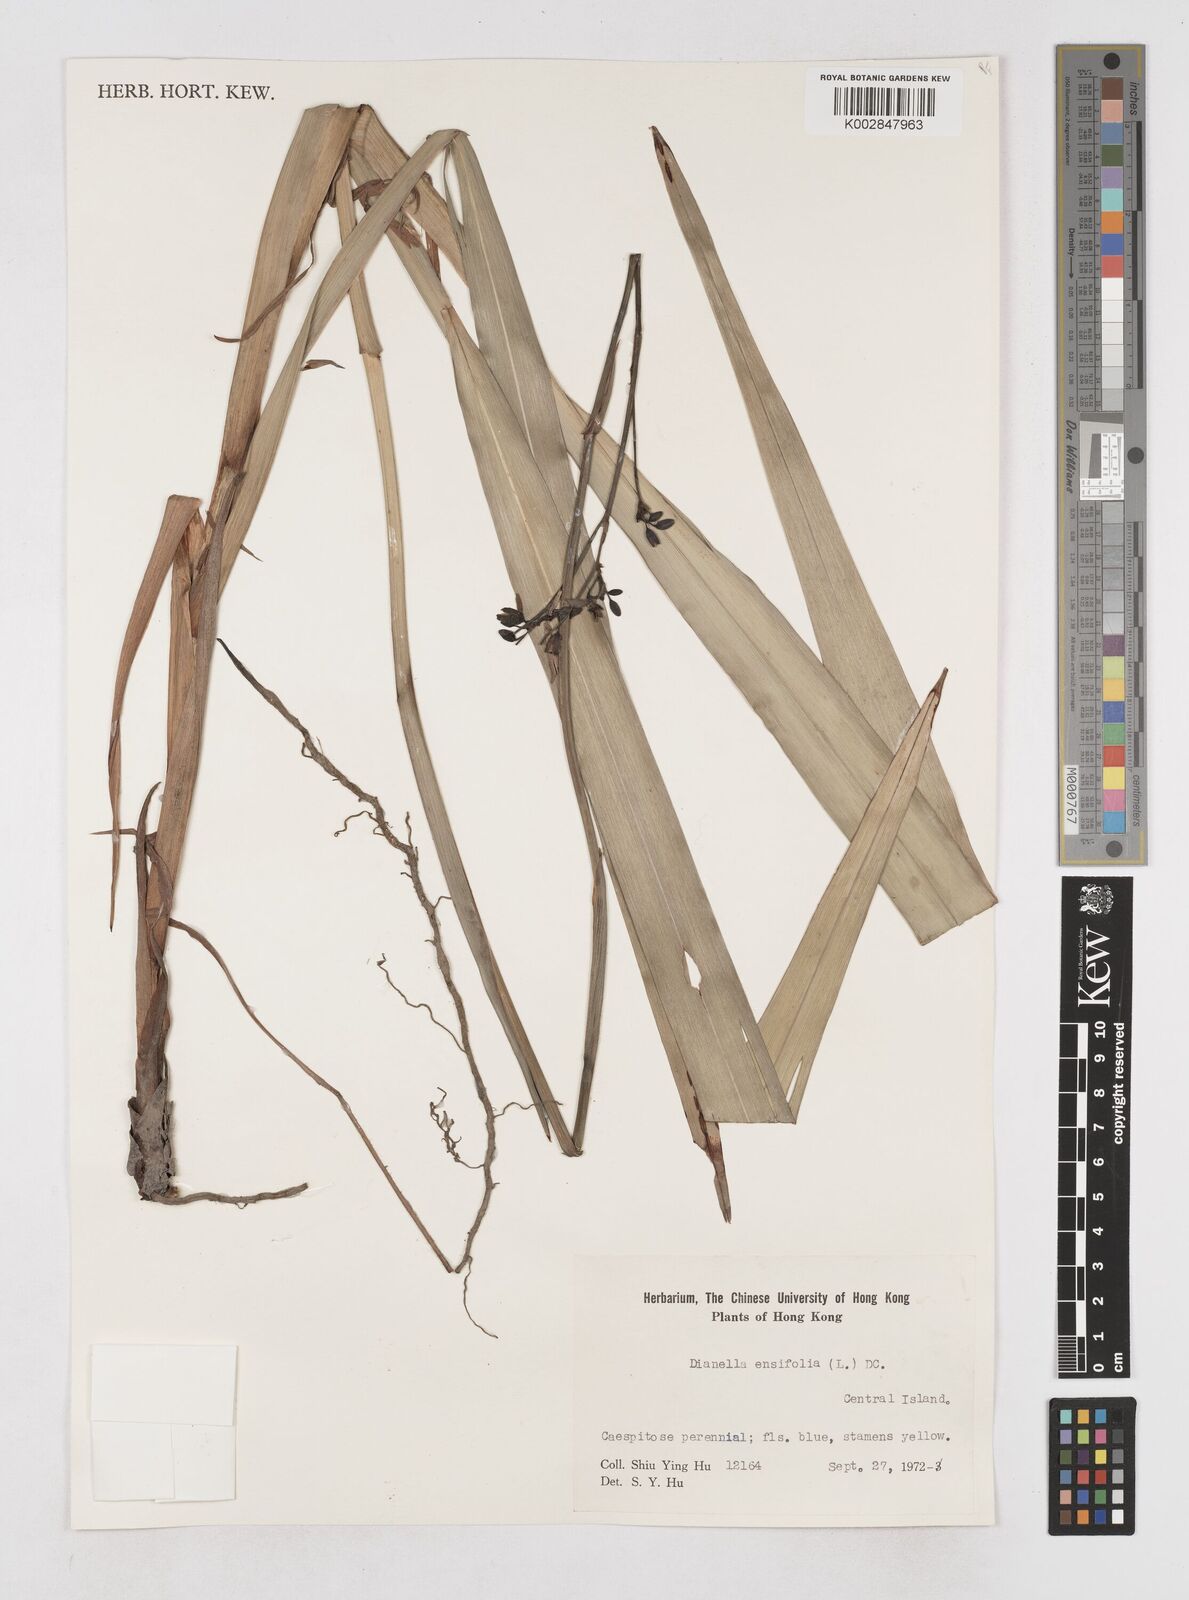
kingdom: Plantae
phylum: Tracheophyta
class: Liliopsida
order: Asparagales
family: Asphodelaceae
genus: Dianella
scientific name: Dianella ensifolia
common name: New zealand lilyplant
